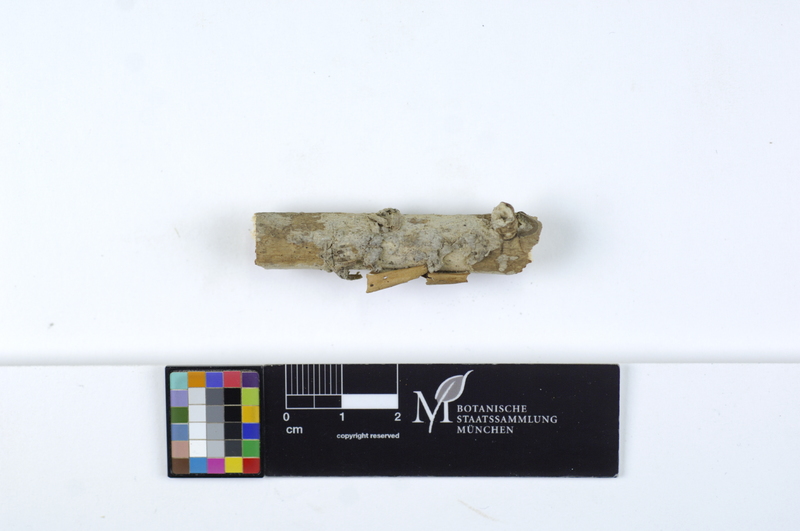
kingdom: Plantae
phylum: Tracheophyta
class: Magnoliopsida
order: Lamiales
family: Oleaceae
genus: Fraxinus
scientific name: Fraxinus
